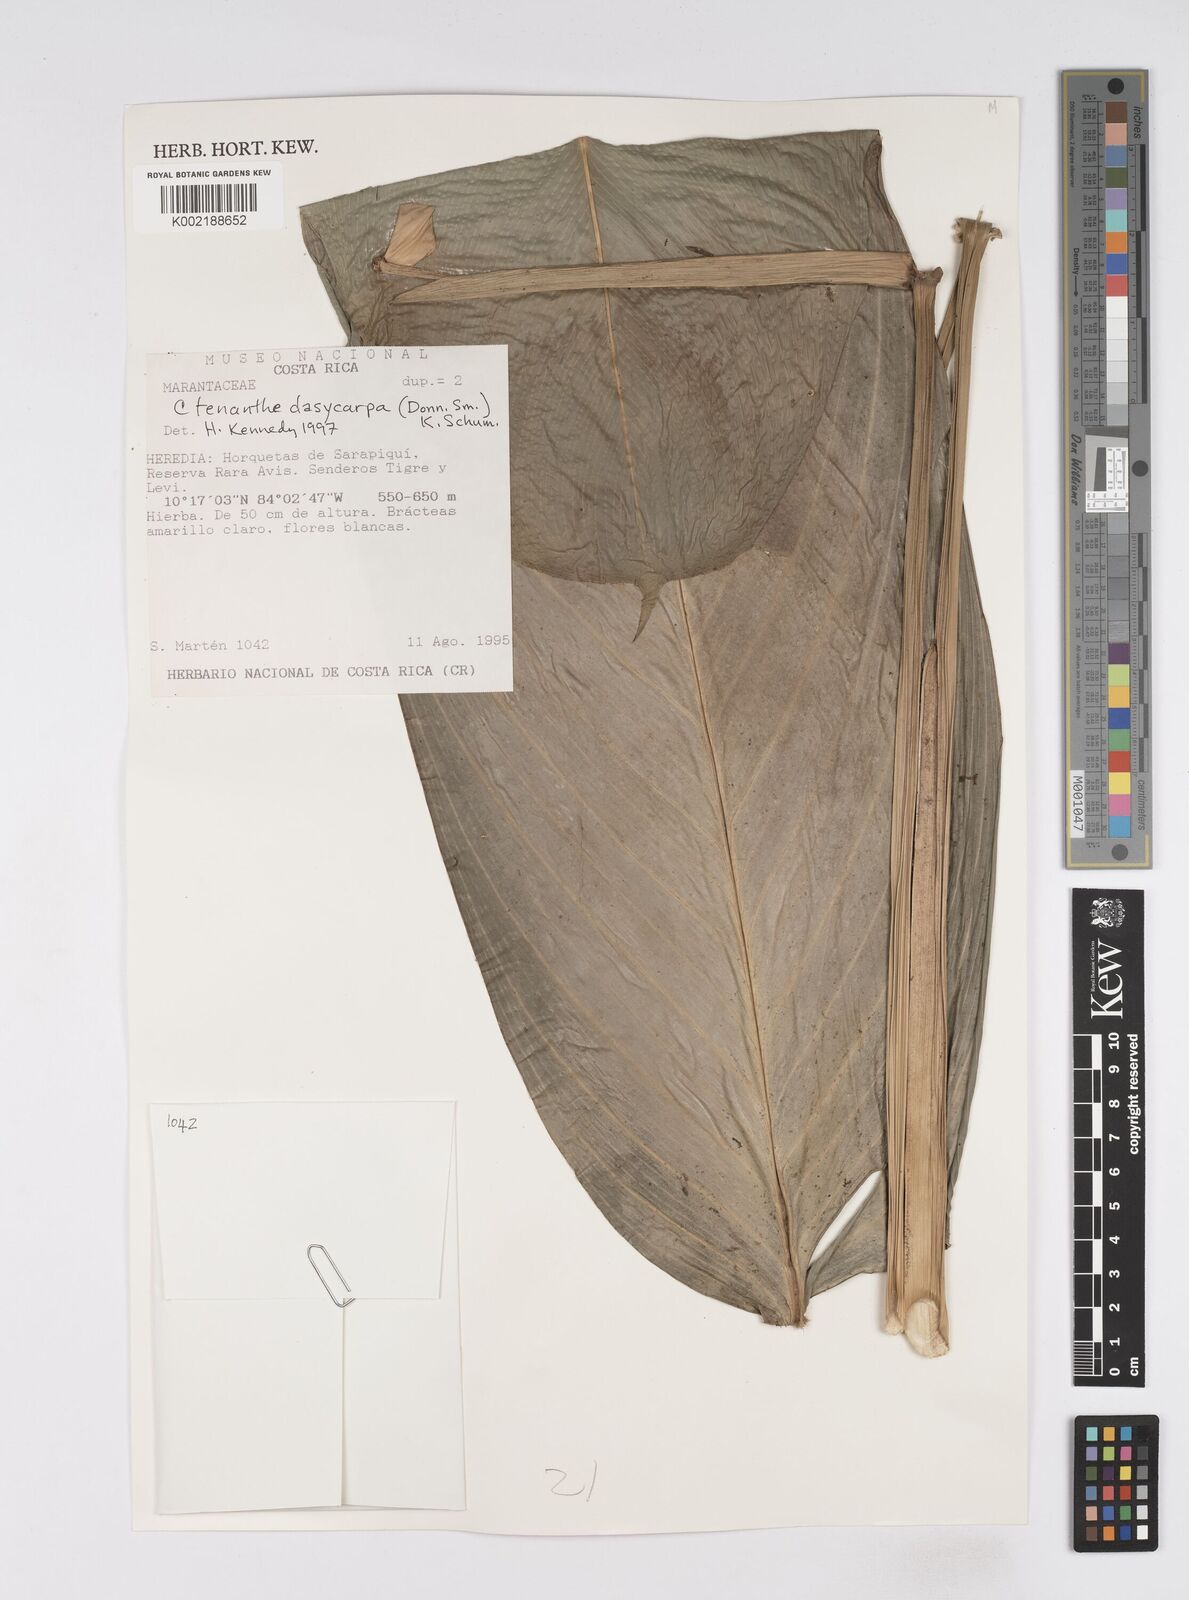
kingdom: Plantae
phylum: Tracheophyta
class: Liliopsida
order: Zingiberales
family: Marantaceae
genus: Ctenanthe
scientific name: Ctenanthe dasycarpa
